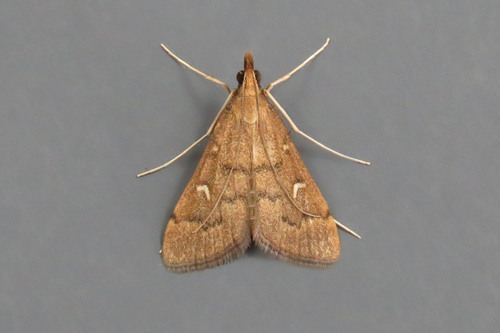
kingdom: Animalia
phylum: Arthropoda
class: Insecta
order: Lepidoptera
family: Crambidae
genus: Stenia
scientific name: Stenia Dolicharthria punctalis
